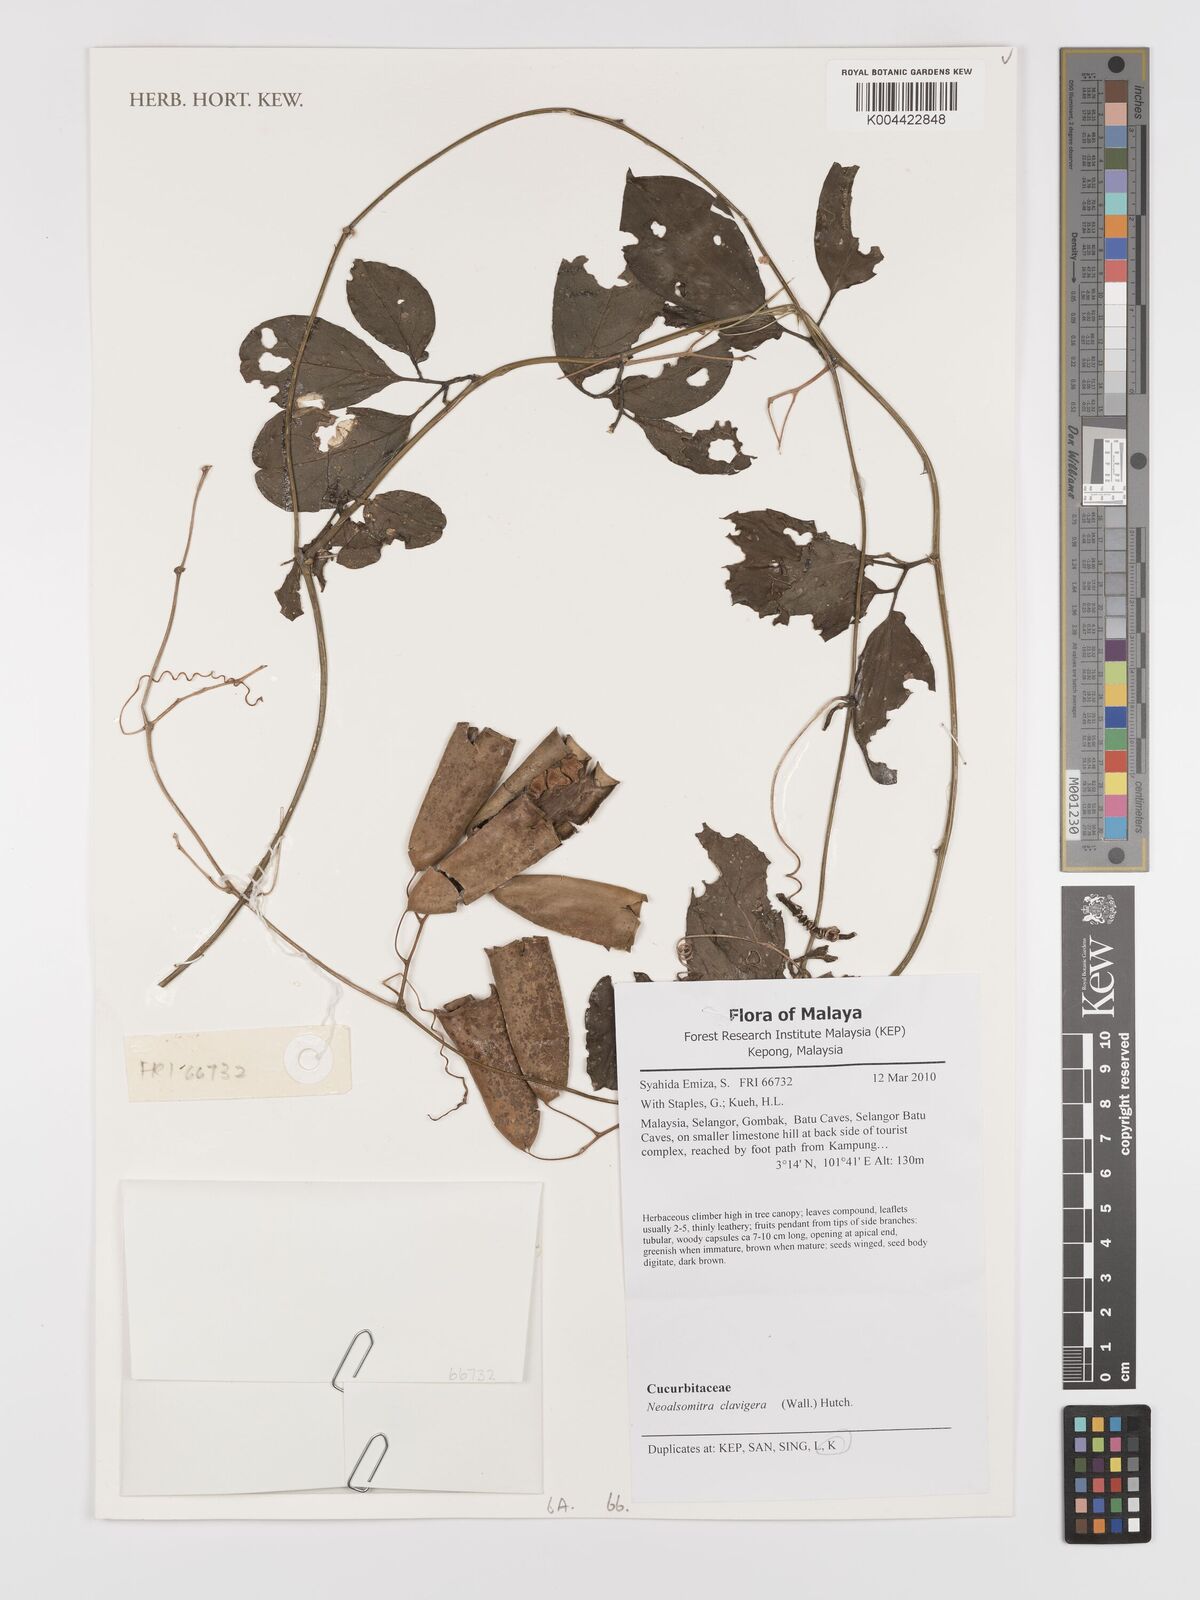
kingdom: Plantae
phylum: Tracheophyta
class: Magnoliopsida
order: Cucurbitales
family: Cucurbitaceae
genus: Neoalsomitra
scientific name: Neoalsomitra clavigera
